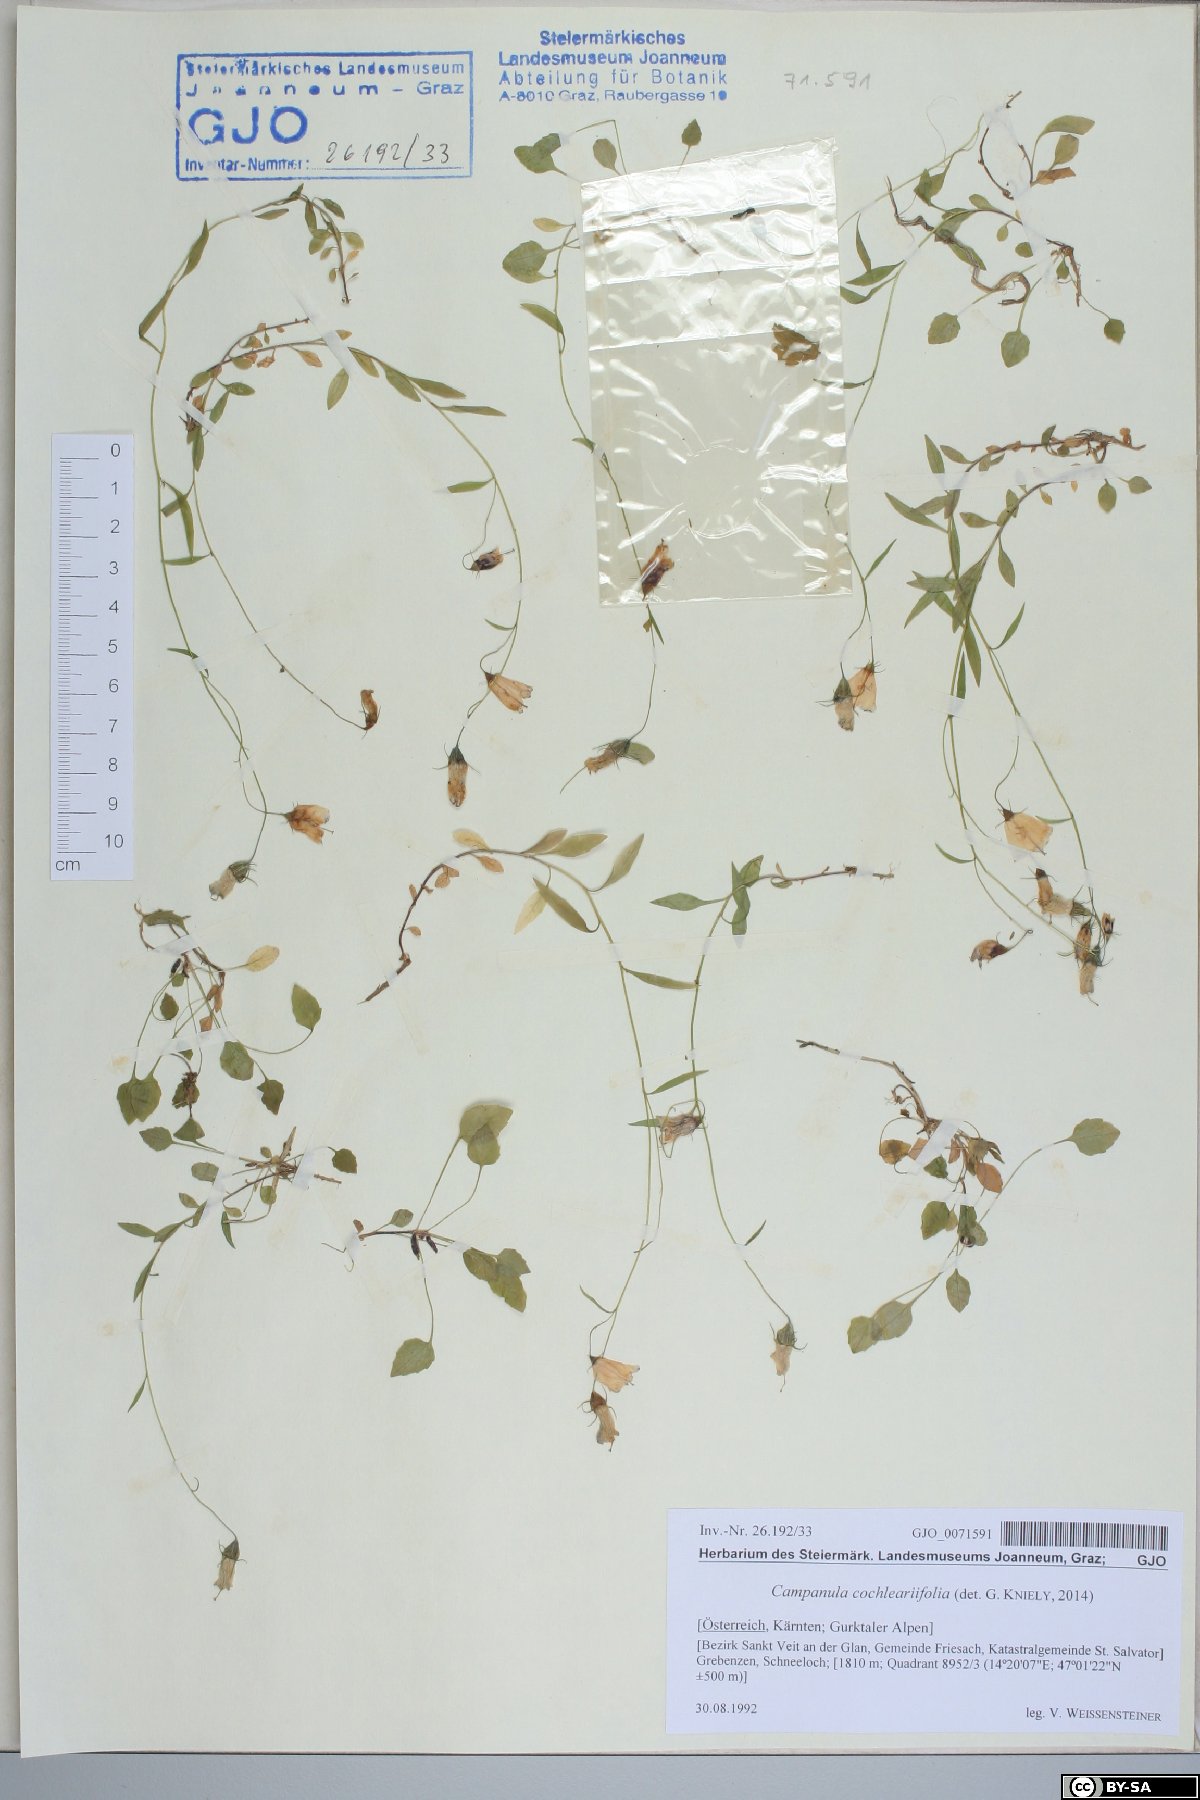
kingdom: Plantae
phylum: Tracheophyta
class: Magnoliopsida
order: Asterales
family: Campanulaceae
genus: Campanula
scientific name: Campanula cochleariifolia
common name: Fairies'-thimbles
